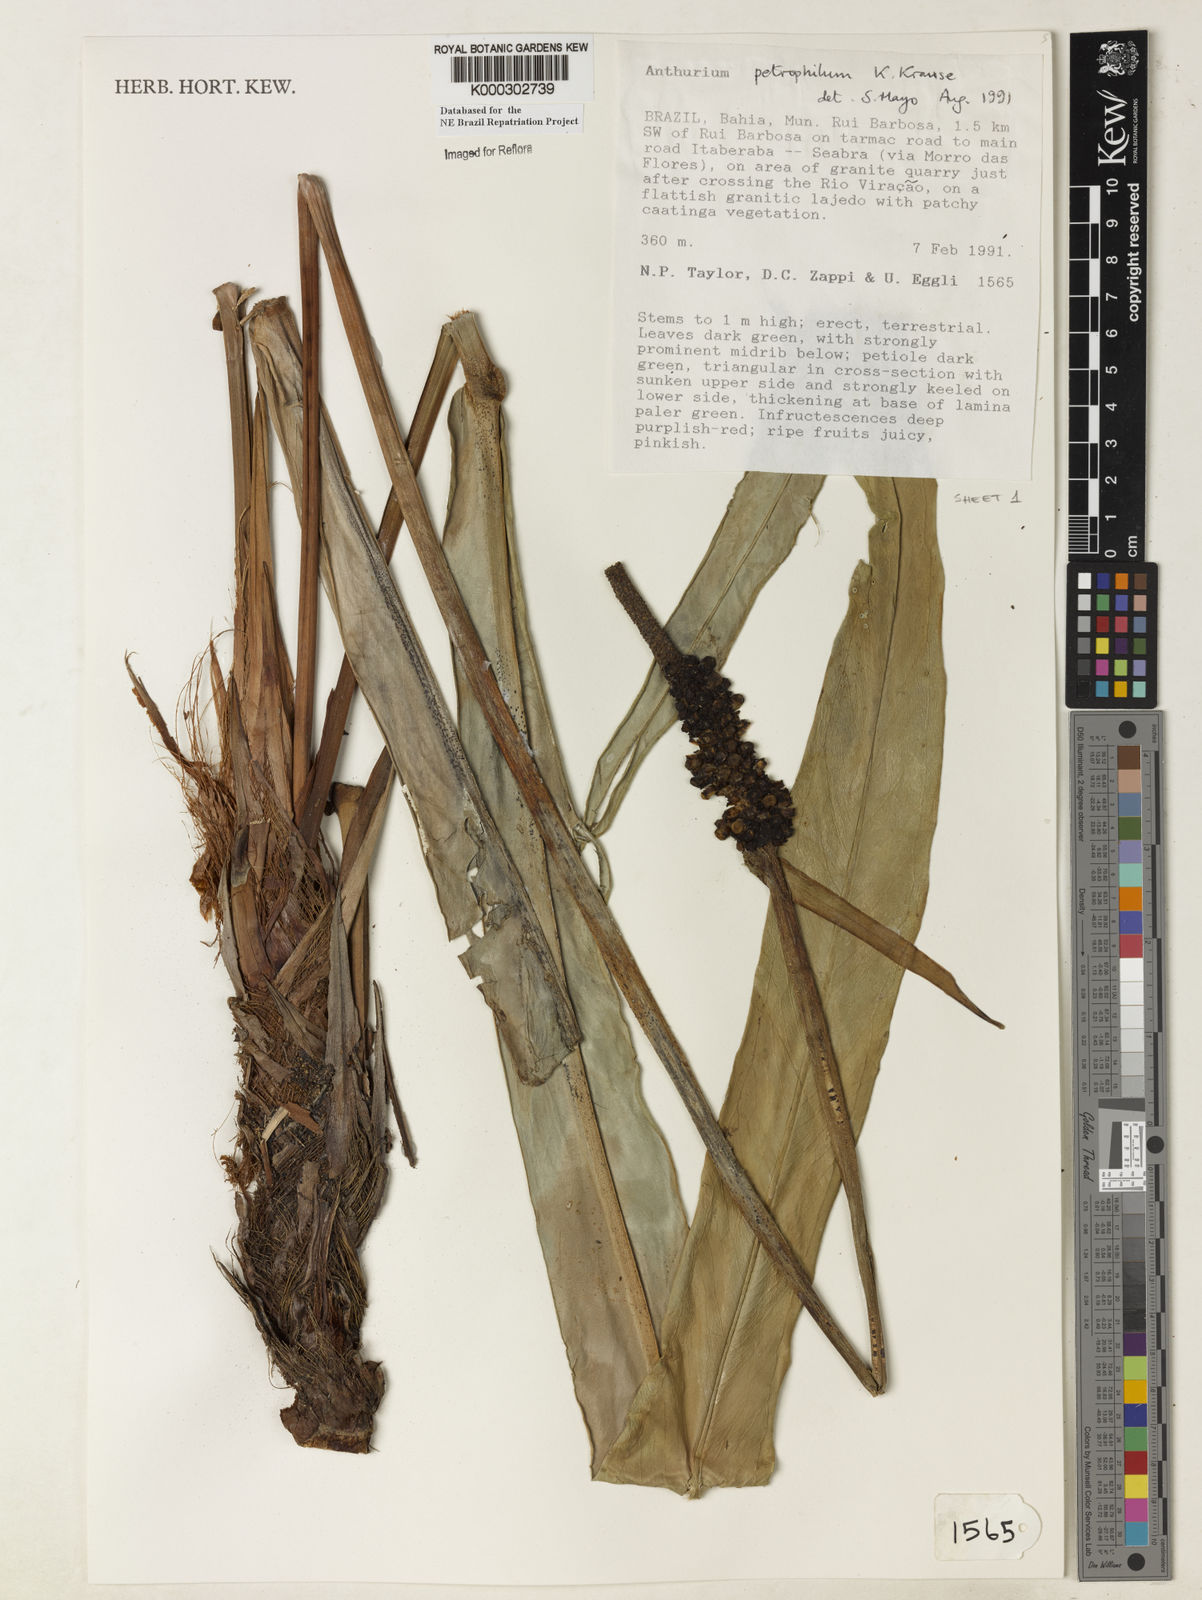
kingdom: Plantae
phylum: Tracheophyta
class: Liliopsida
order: Alismatales
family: Araceae
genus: Anthurium
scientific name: Anthurium petrophilum
